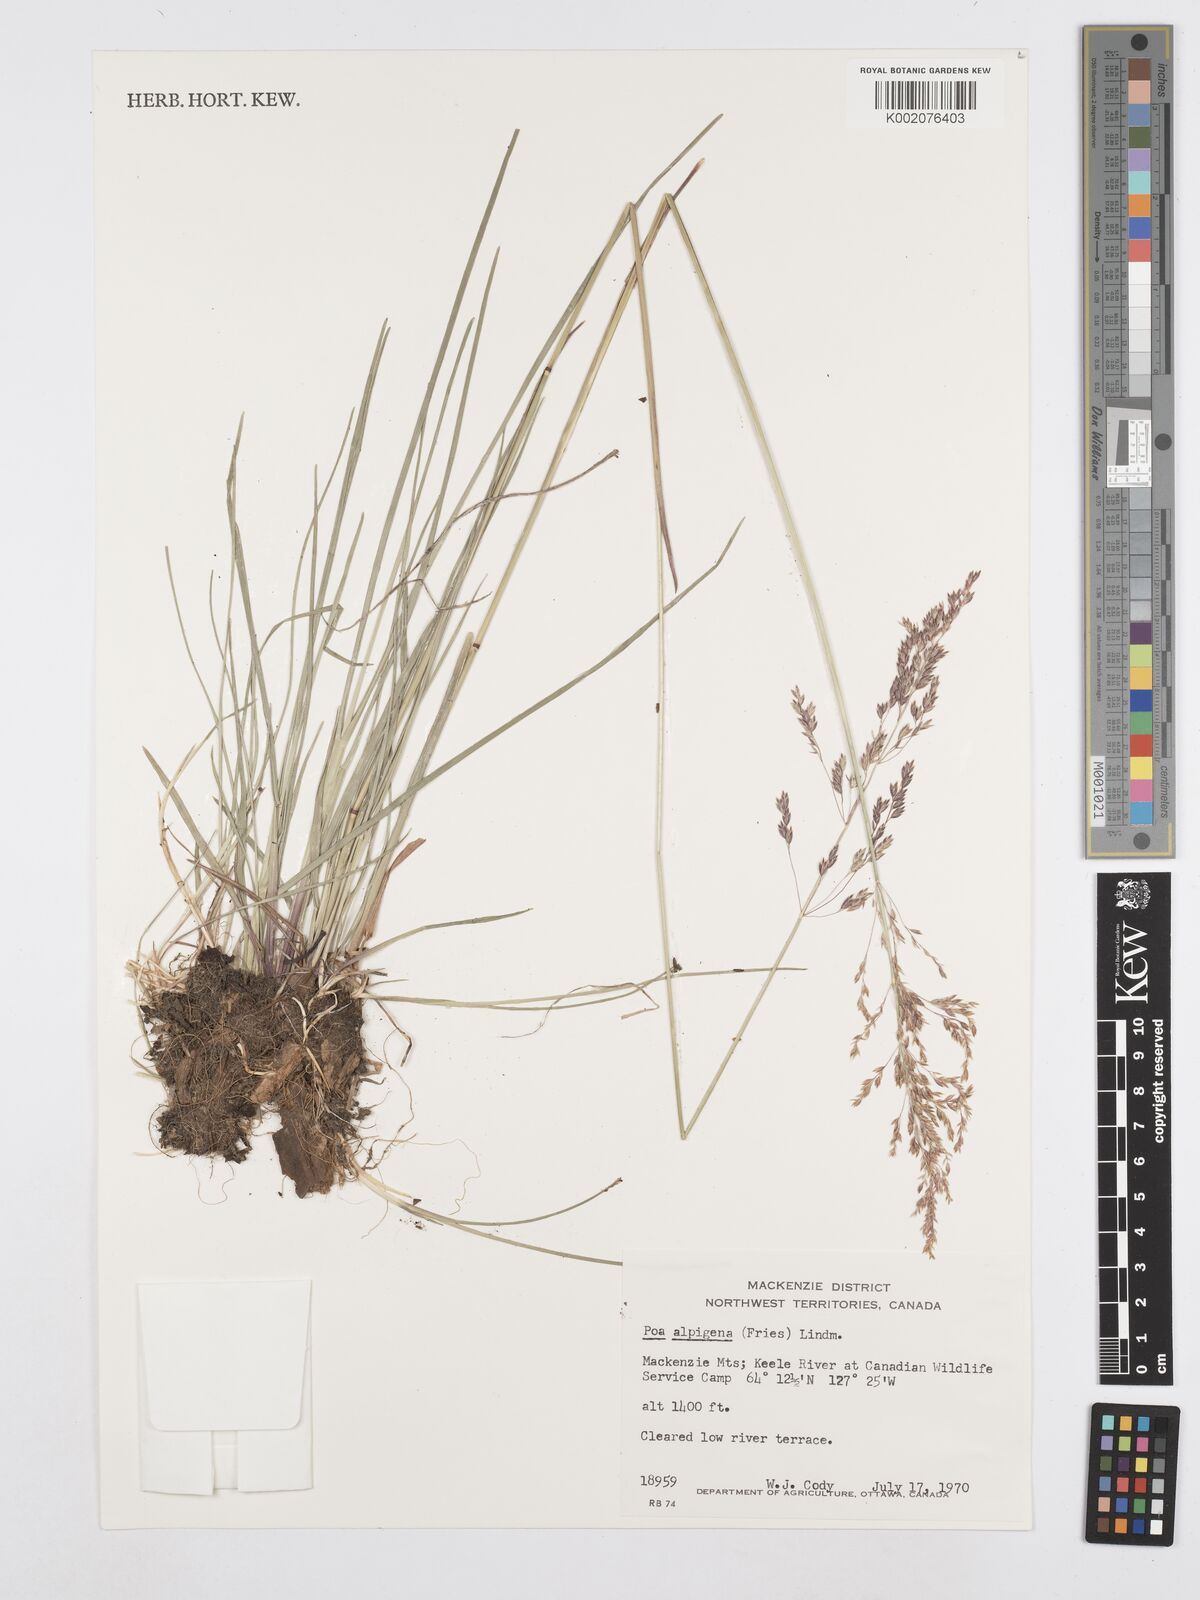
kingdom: Plantae
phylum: Tracheophyta
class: Liliopsida
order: Poales
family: Poaceae
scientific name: Poaceae
